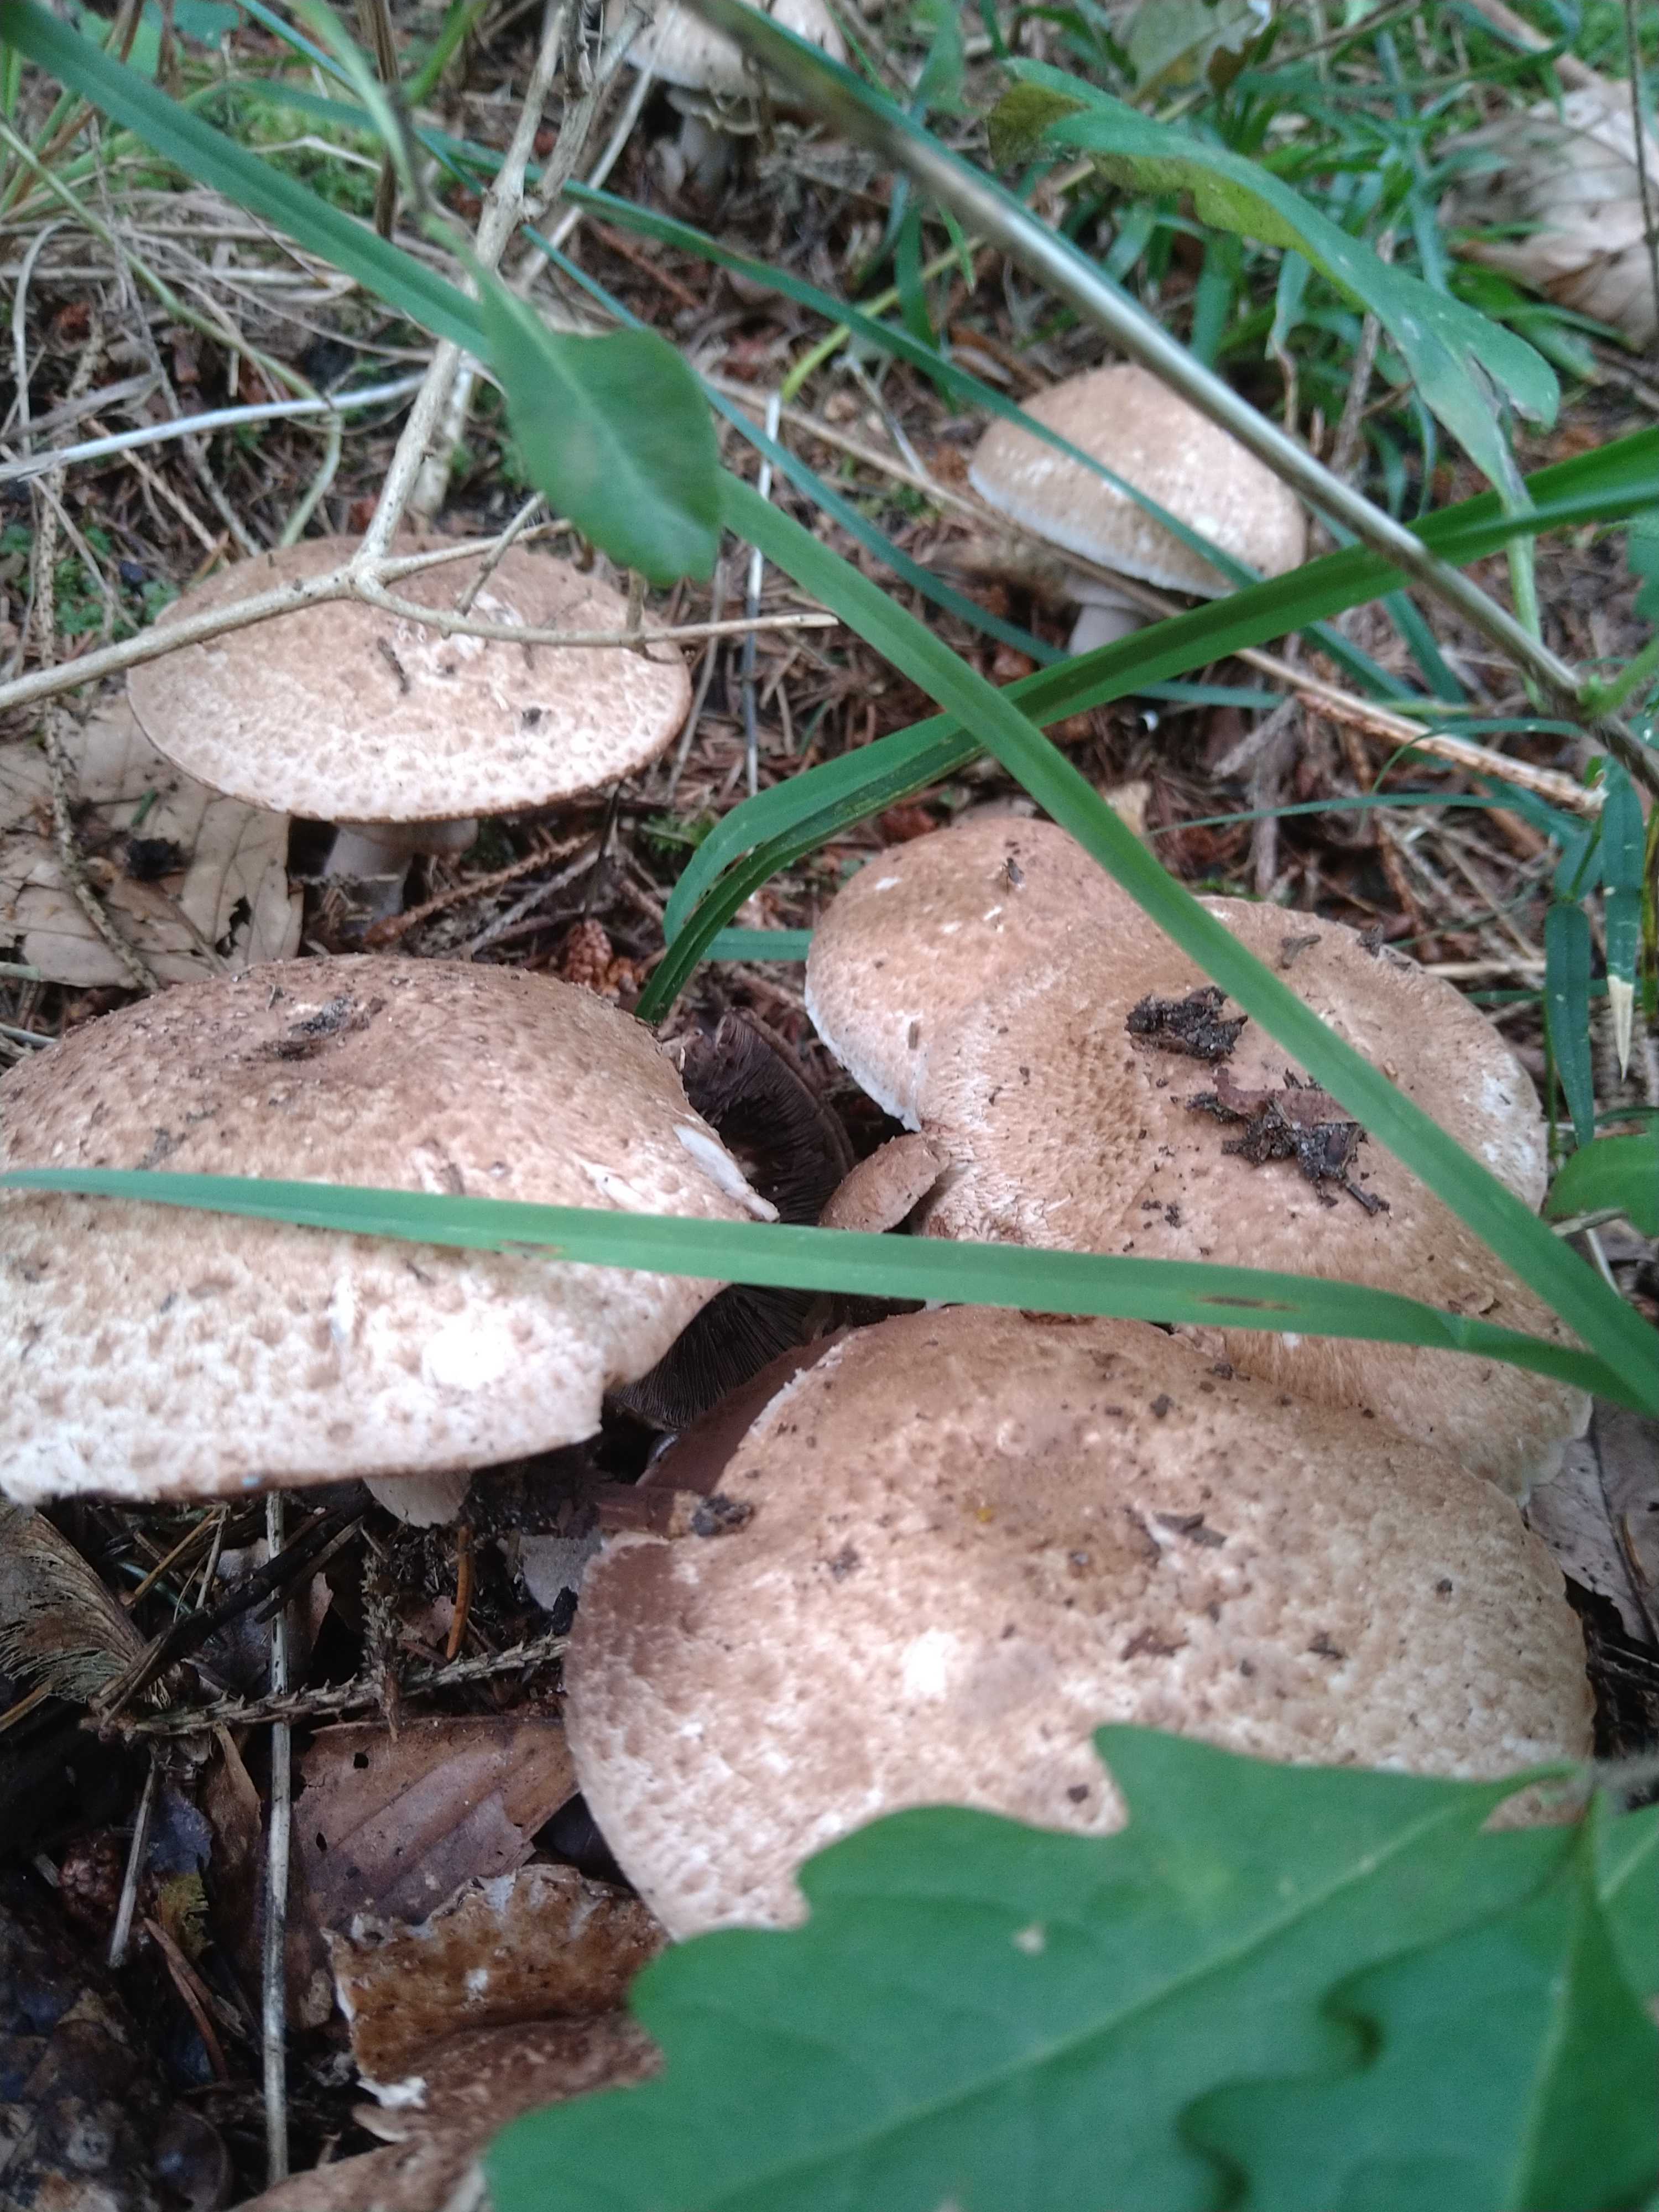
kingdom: Fungi
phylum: Basidiomycota
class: Agaricomycetes
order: Agaricales
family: Agaricaceae
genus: Agaricus
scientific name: Agaricus
